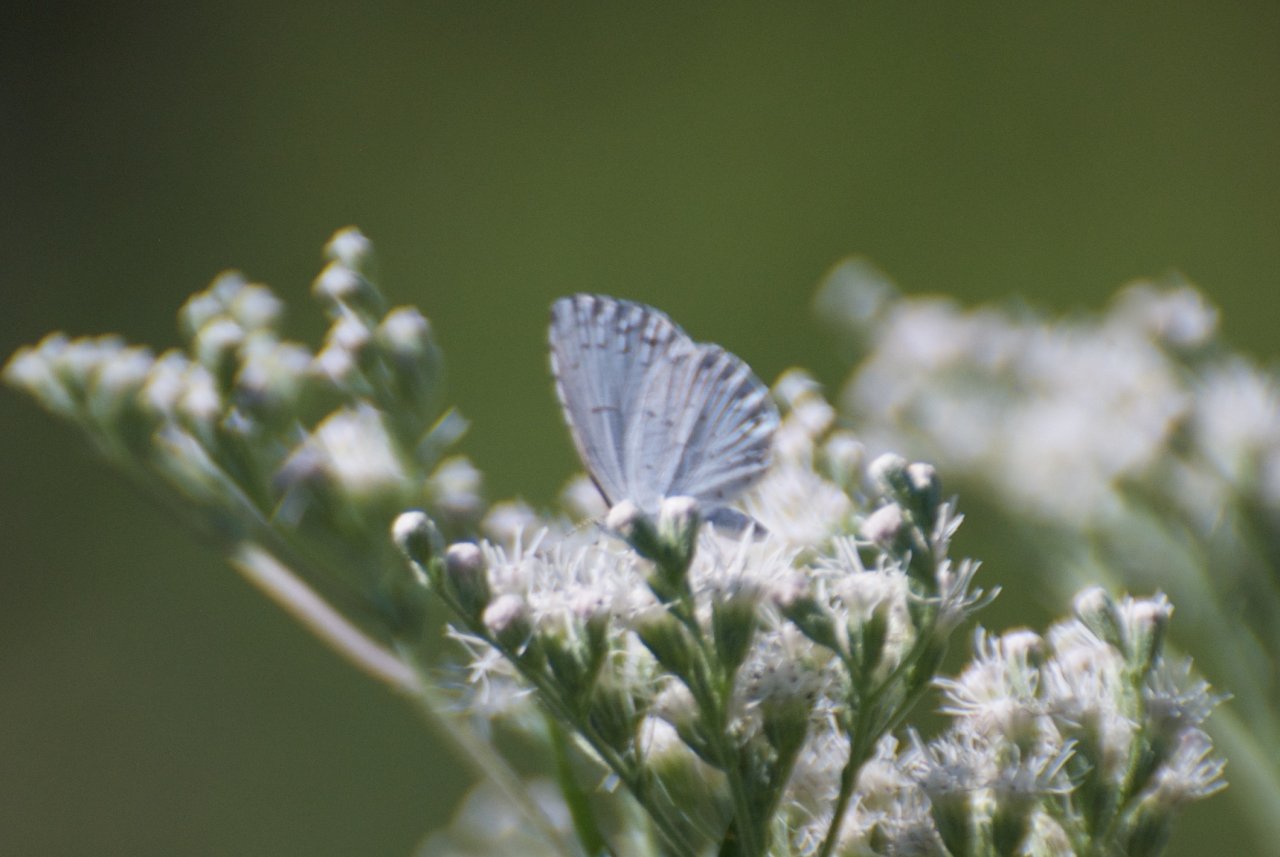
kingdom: Animalia
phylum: Arthropoda
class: Insecta
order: Lepidoptera
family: Lycaenidae
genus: Cyaniris
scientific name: Cyaniris neglecta
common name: Summer Azure
